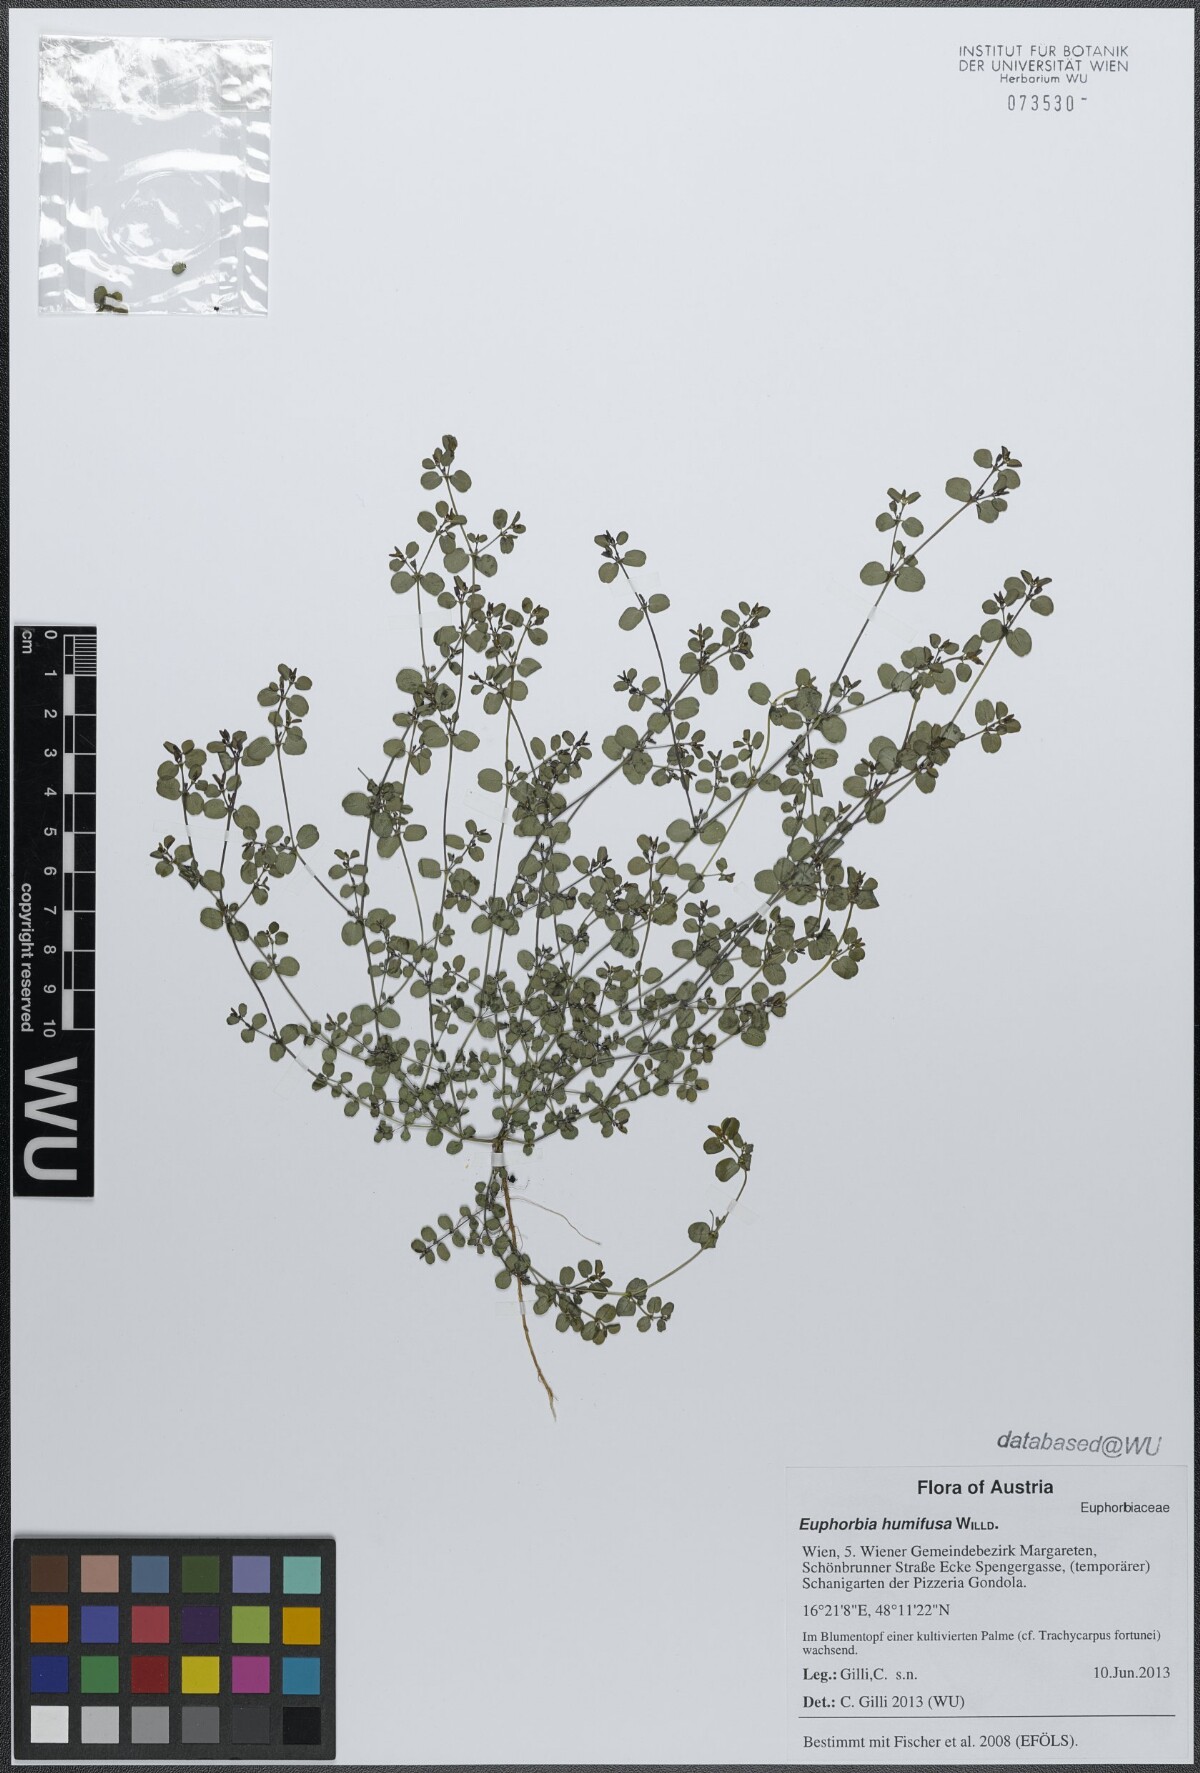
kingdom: Plantae
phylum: Tracheophyta
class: Magnoliopsida
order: Malpighiales
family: Euphorbiaceae
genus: Euphorbia
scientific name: Euphorbia humifusa
